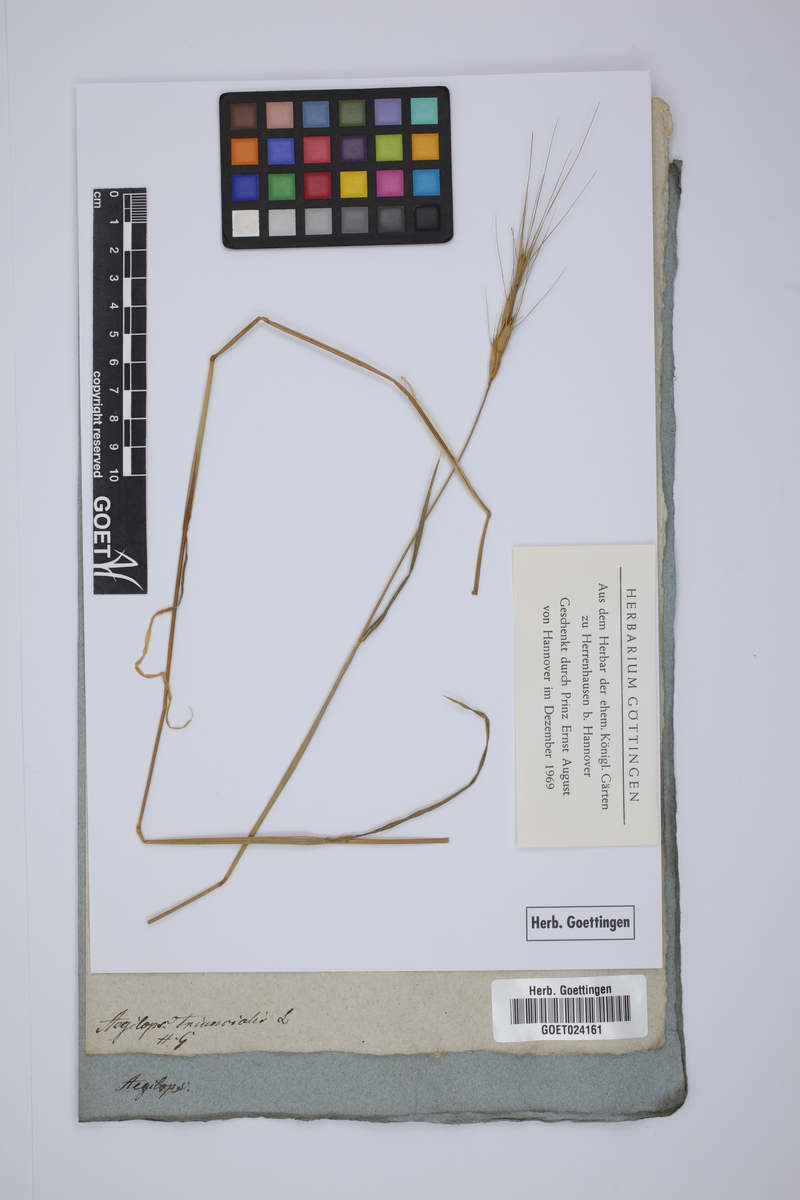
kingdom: Plantae
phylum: Tracheophyta
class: Liliopsida
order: Poales
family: Poaceae
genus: Aegilops
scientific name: Aegilops triuncialis
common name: Barb goat grass
